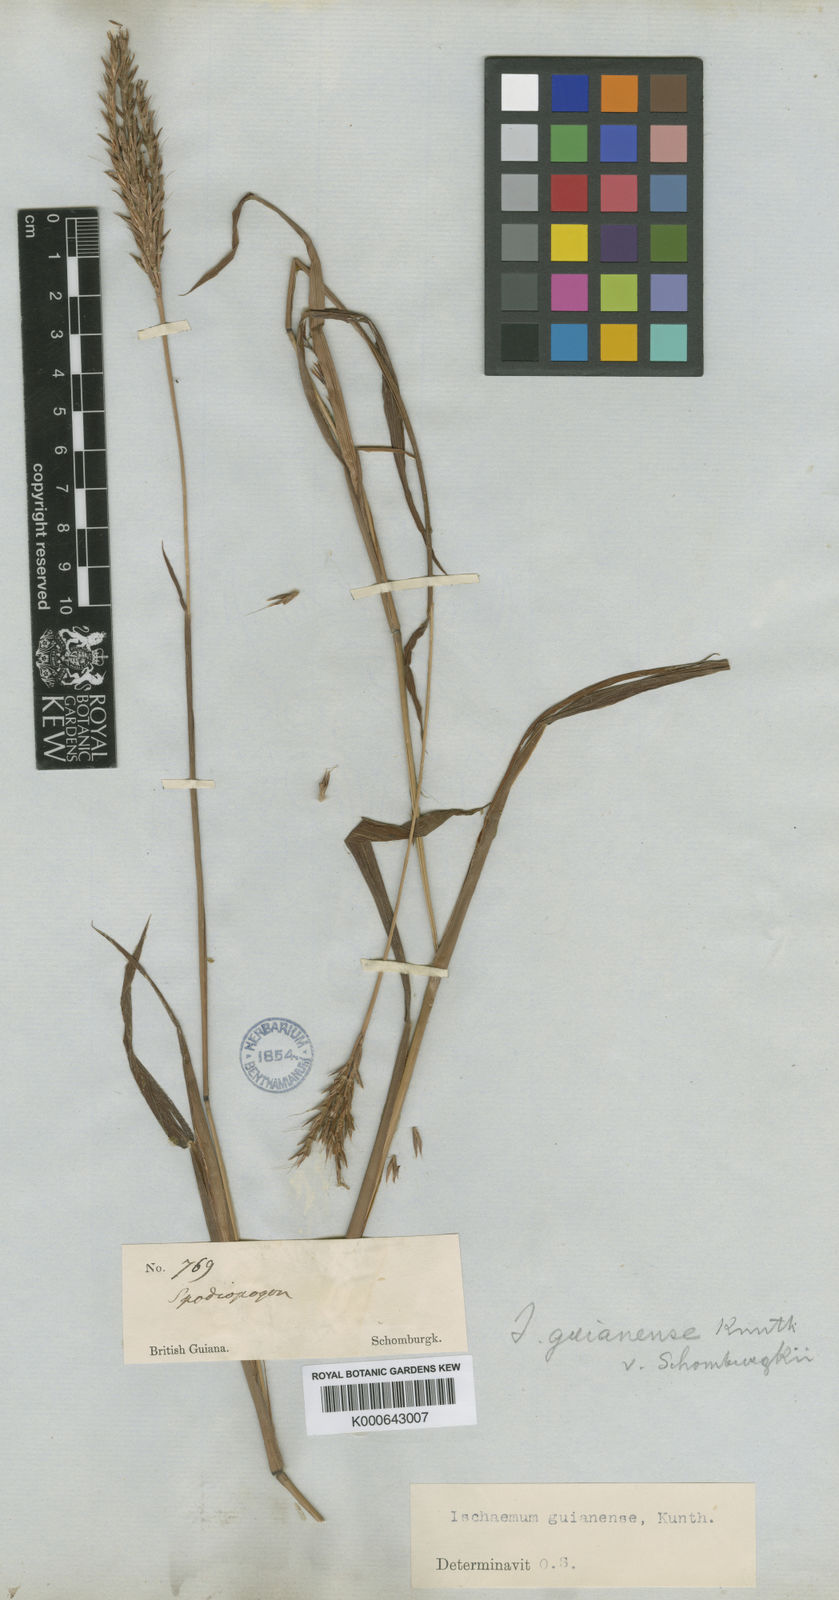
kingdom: Plantae
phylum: Tracheophyta
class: Liliopsida
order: Poales
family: Poaceae
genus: Ischaemum
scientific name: Ischaemum guianense
